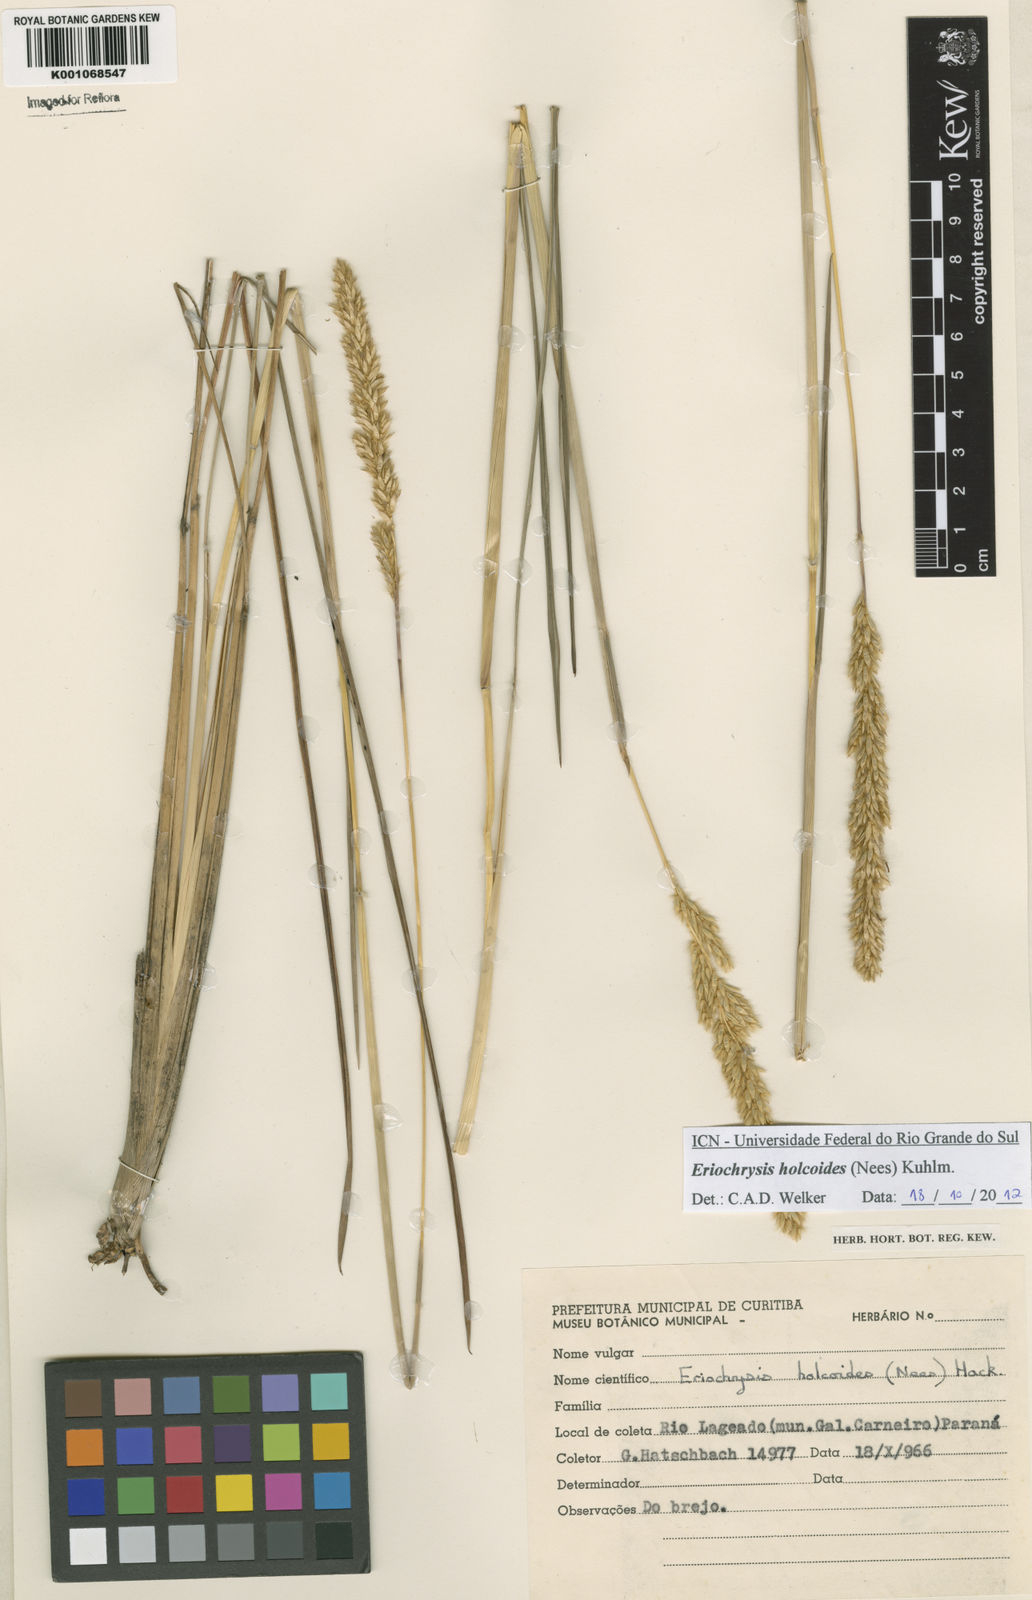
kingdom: Plantae
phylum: Tracheophyta
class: Liliopsida
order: Poales
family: Poaceae
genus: Eriochrysis
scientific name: Eriochrysis holcoides
